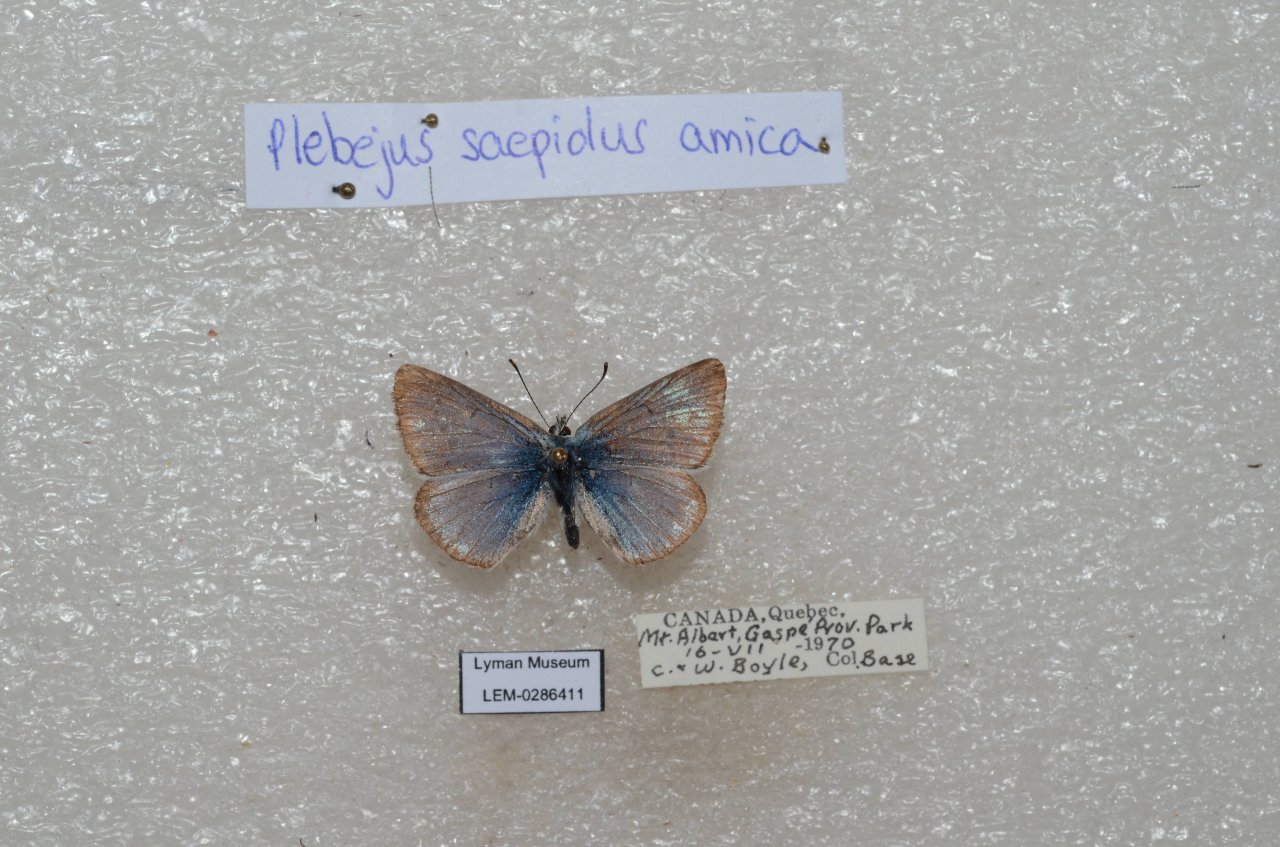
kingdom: Animalia
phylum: Arthropoda
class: Insecta
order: Lepidoptera
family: Lycaenidae
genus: Plebejus
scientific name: Plebejus saepiolus
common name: Greenish Blue
